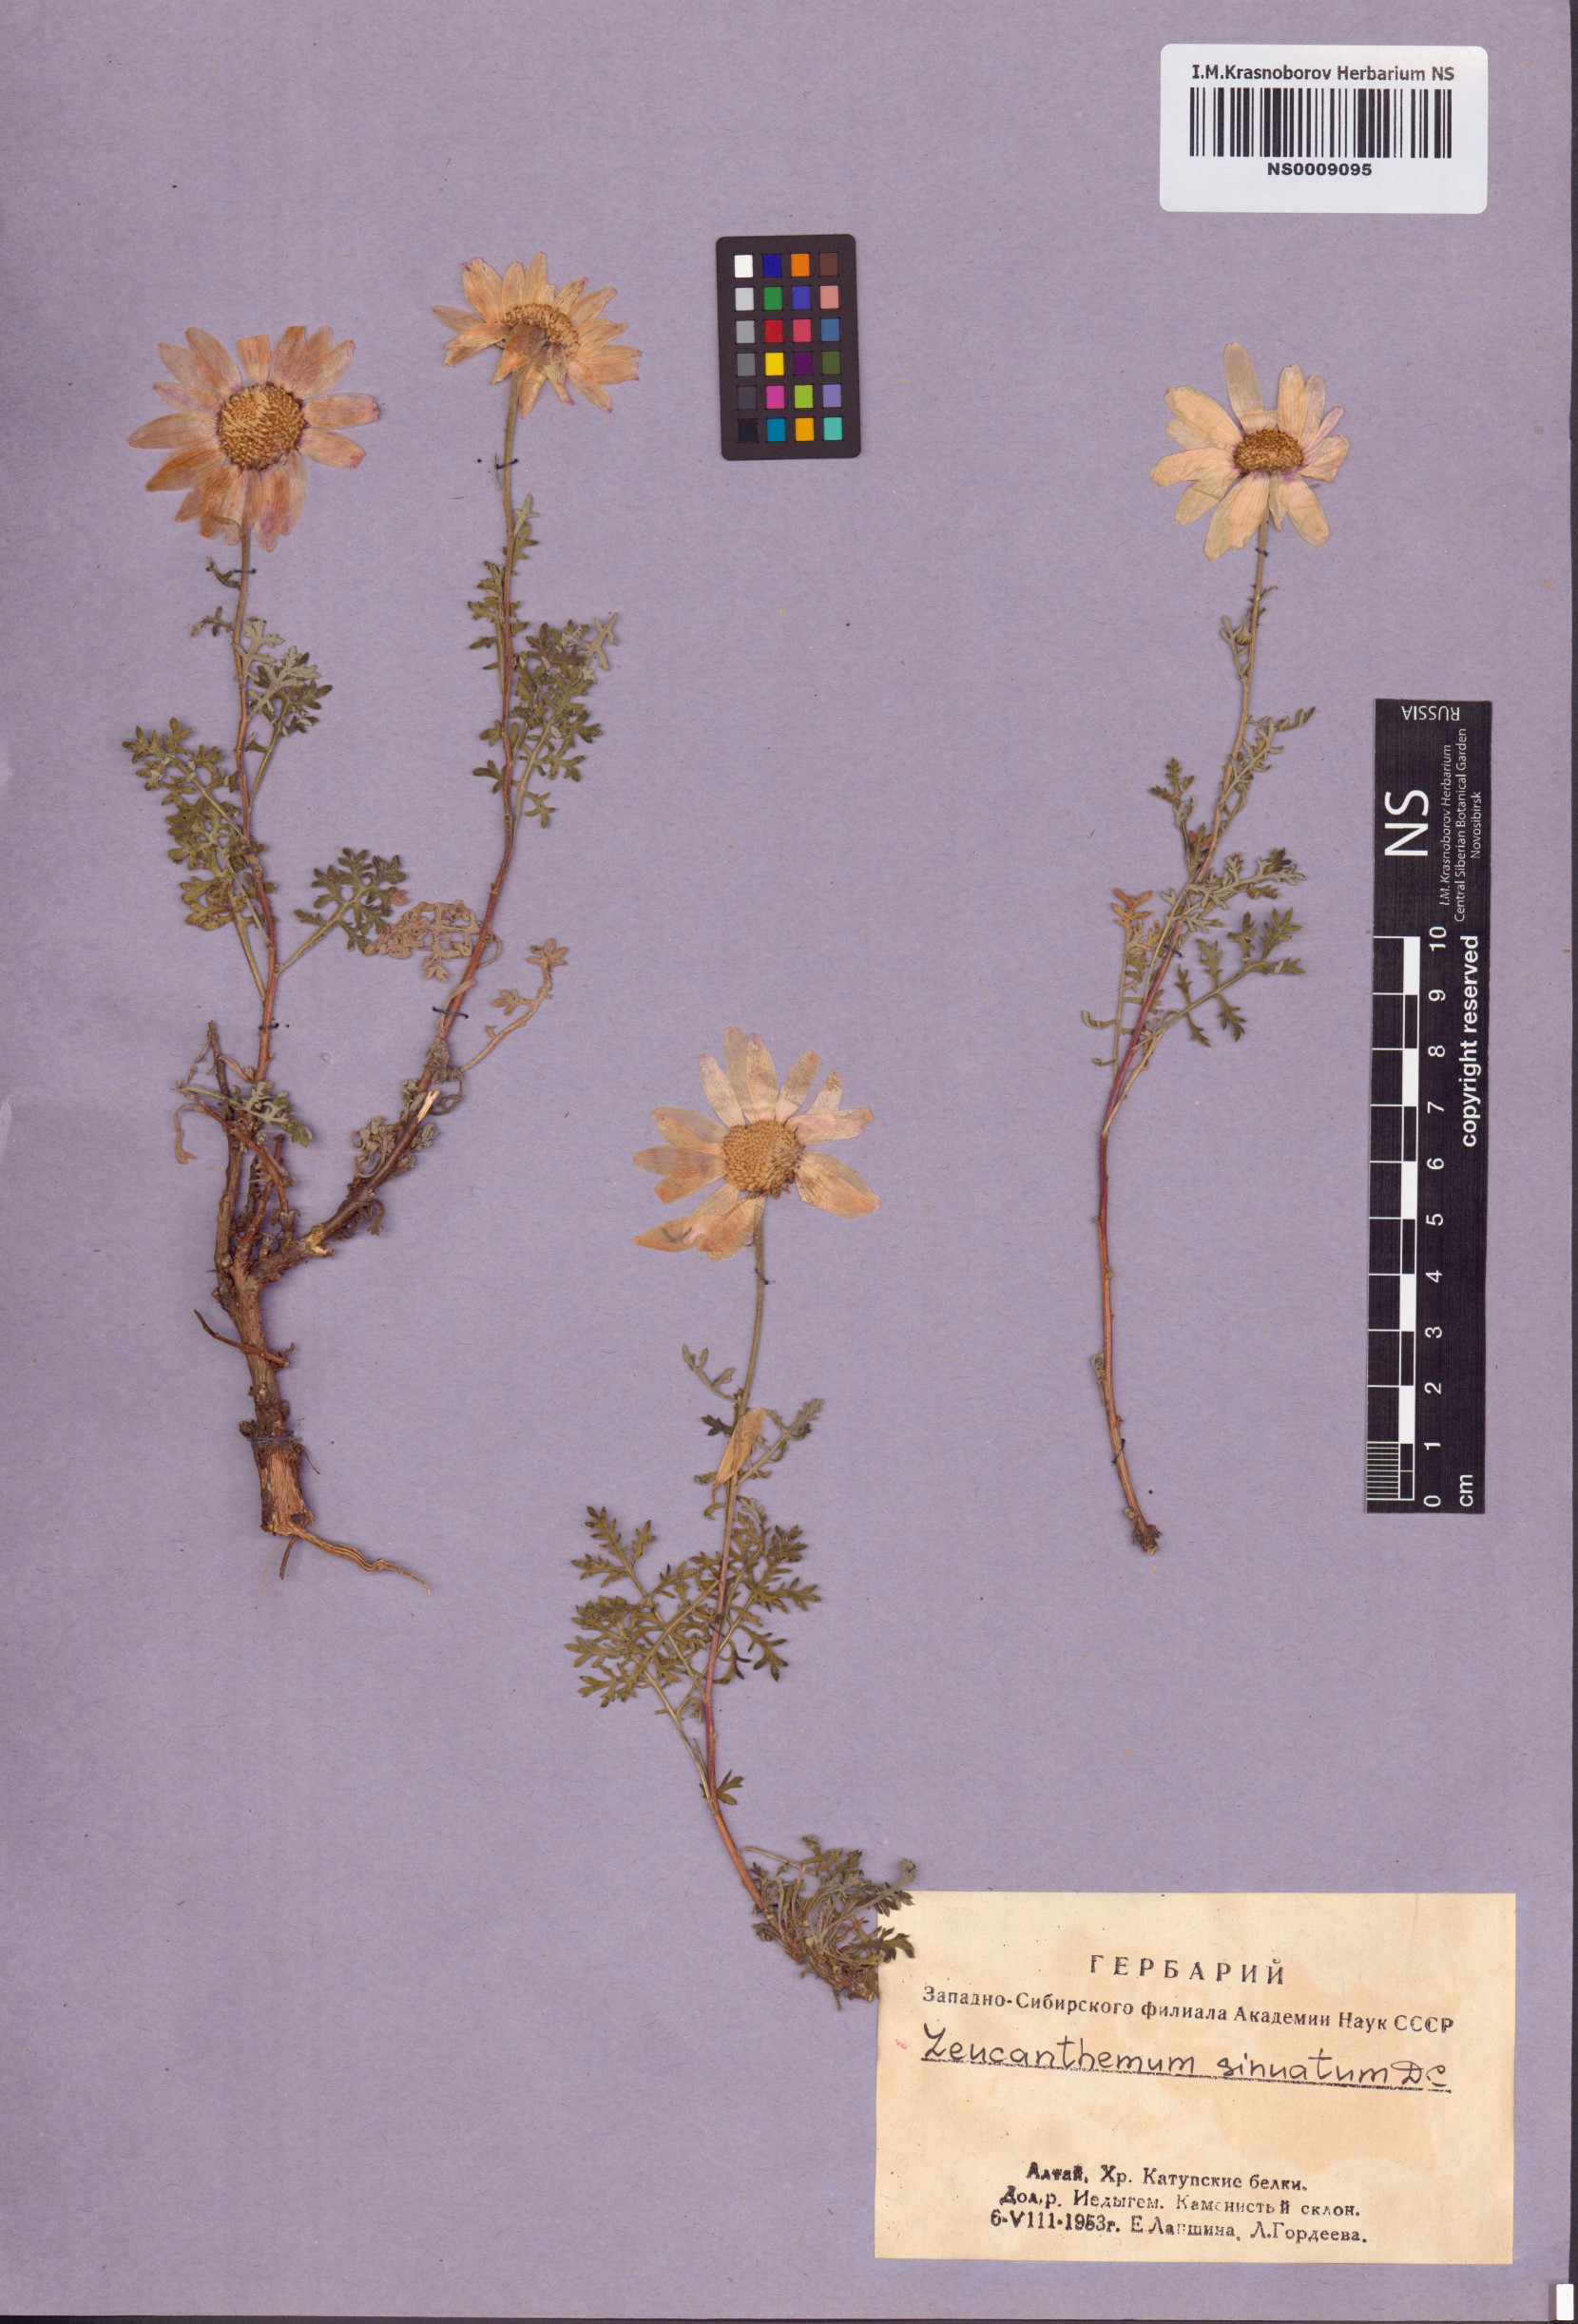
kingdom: Plantae
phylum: Tracheophyta
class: Magnoliopsida
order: Asterales
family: Asteraceae
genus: Chrysanthemum
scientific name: Chrysanthemum sinuatum
